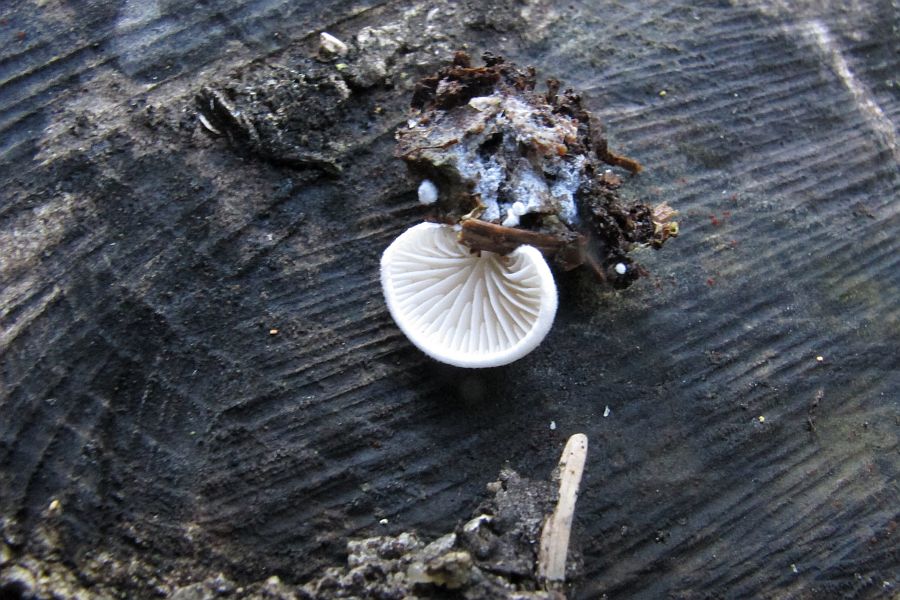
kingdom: Fungi
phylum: Basidiomycota
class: Agaricomycetes
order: Agaricales
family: Crepidotaceae
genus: Crepidotus
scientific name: Crepidotus kubickae
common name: gran-muslingesvamp
